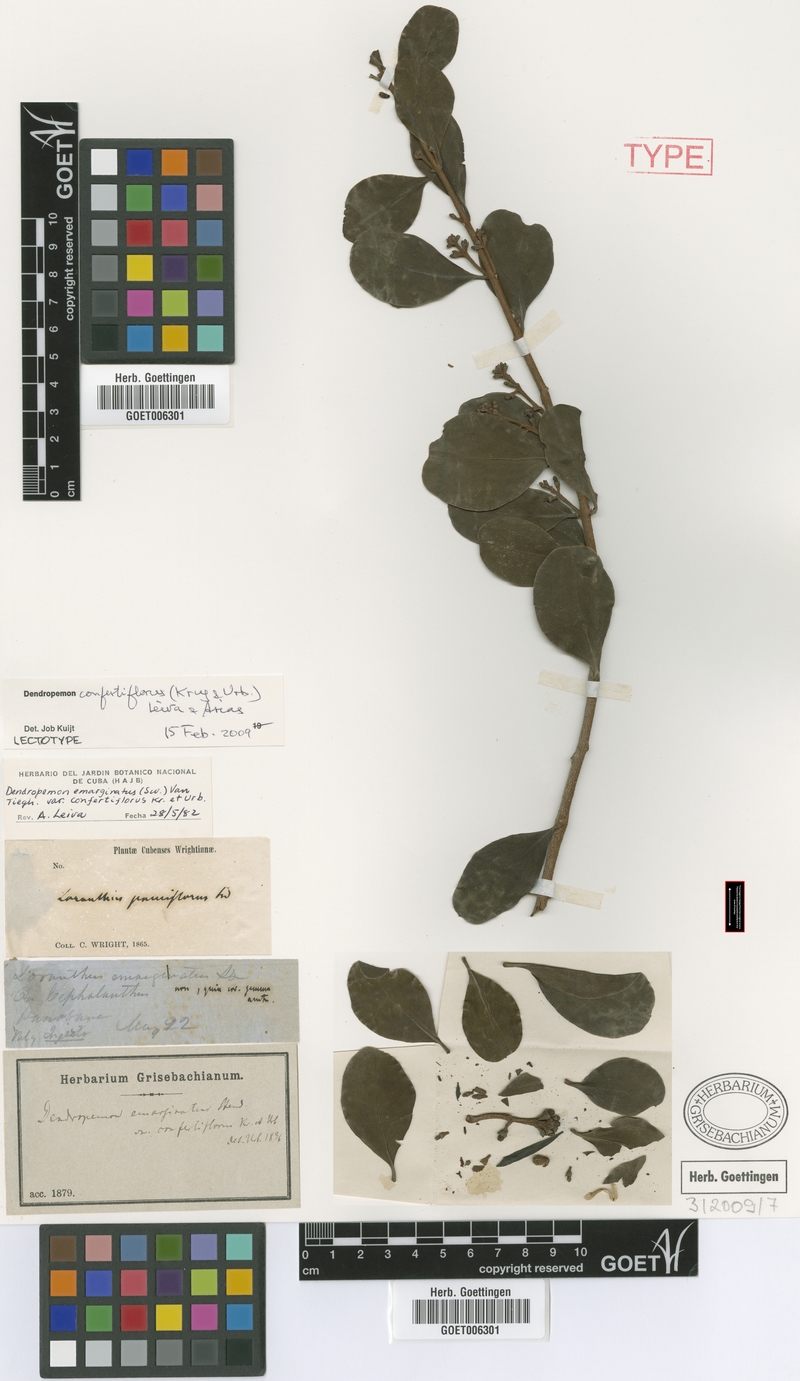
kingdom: Plantae
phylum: Tracheophyta
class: Magnoliopsida
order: Santalales
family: Loranthaceae
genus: Dendropemon
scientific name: Dendropemon confertiflorus
